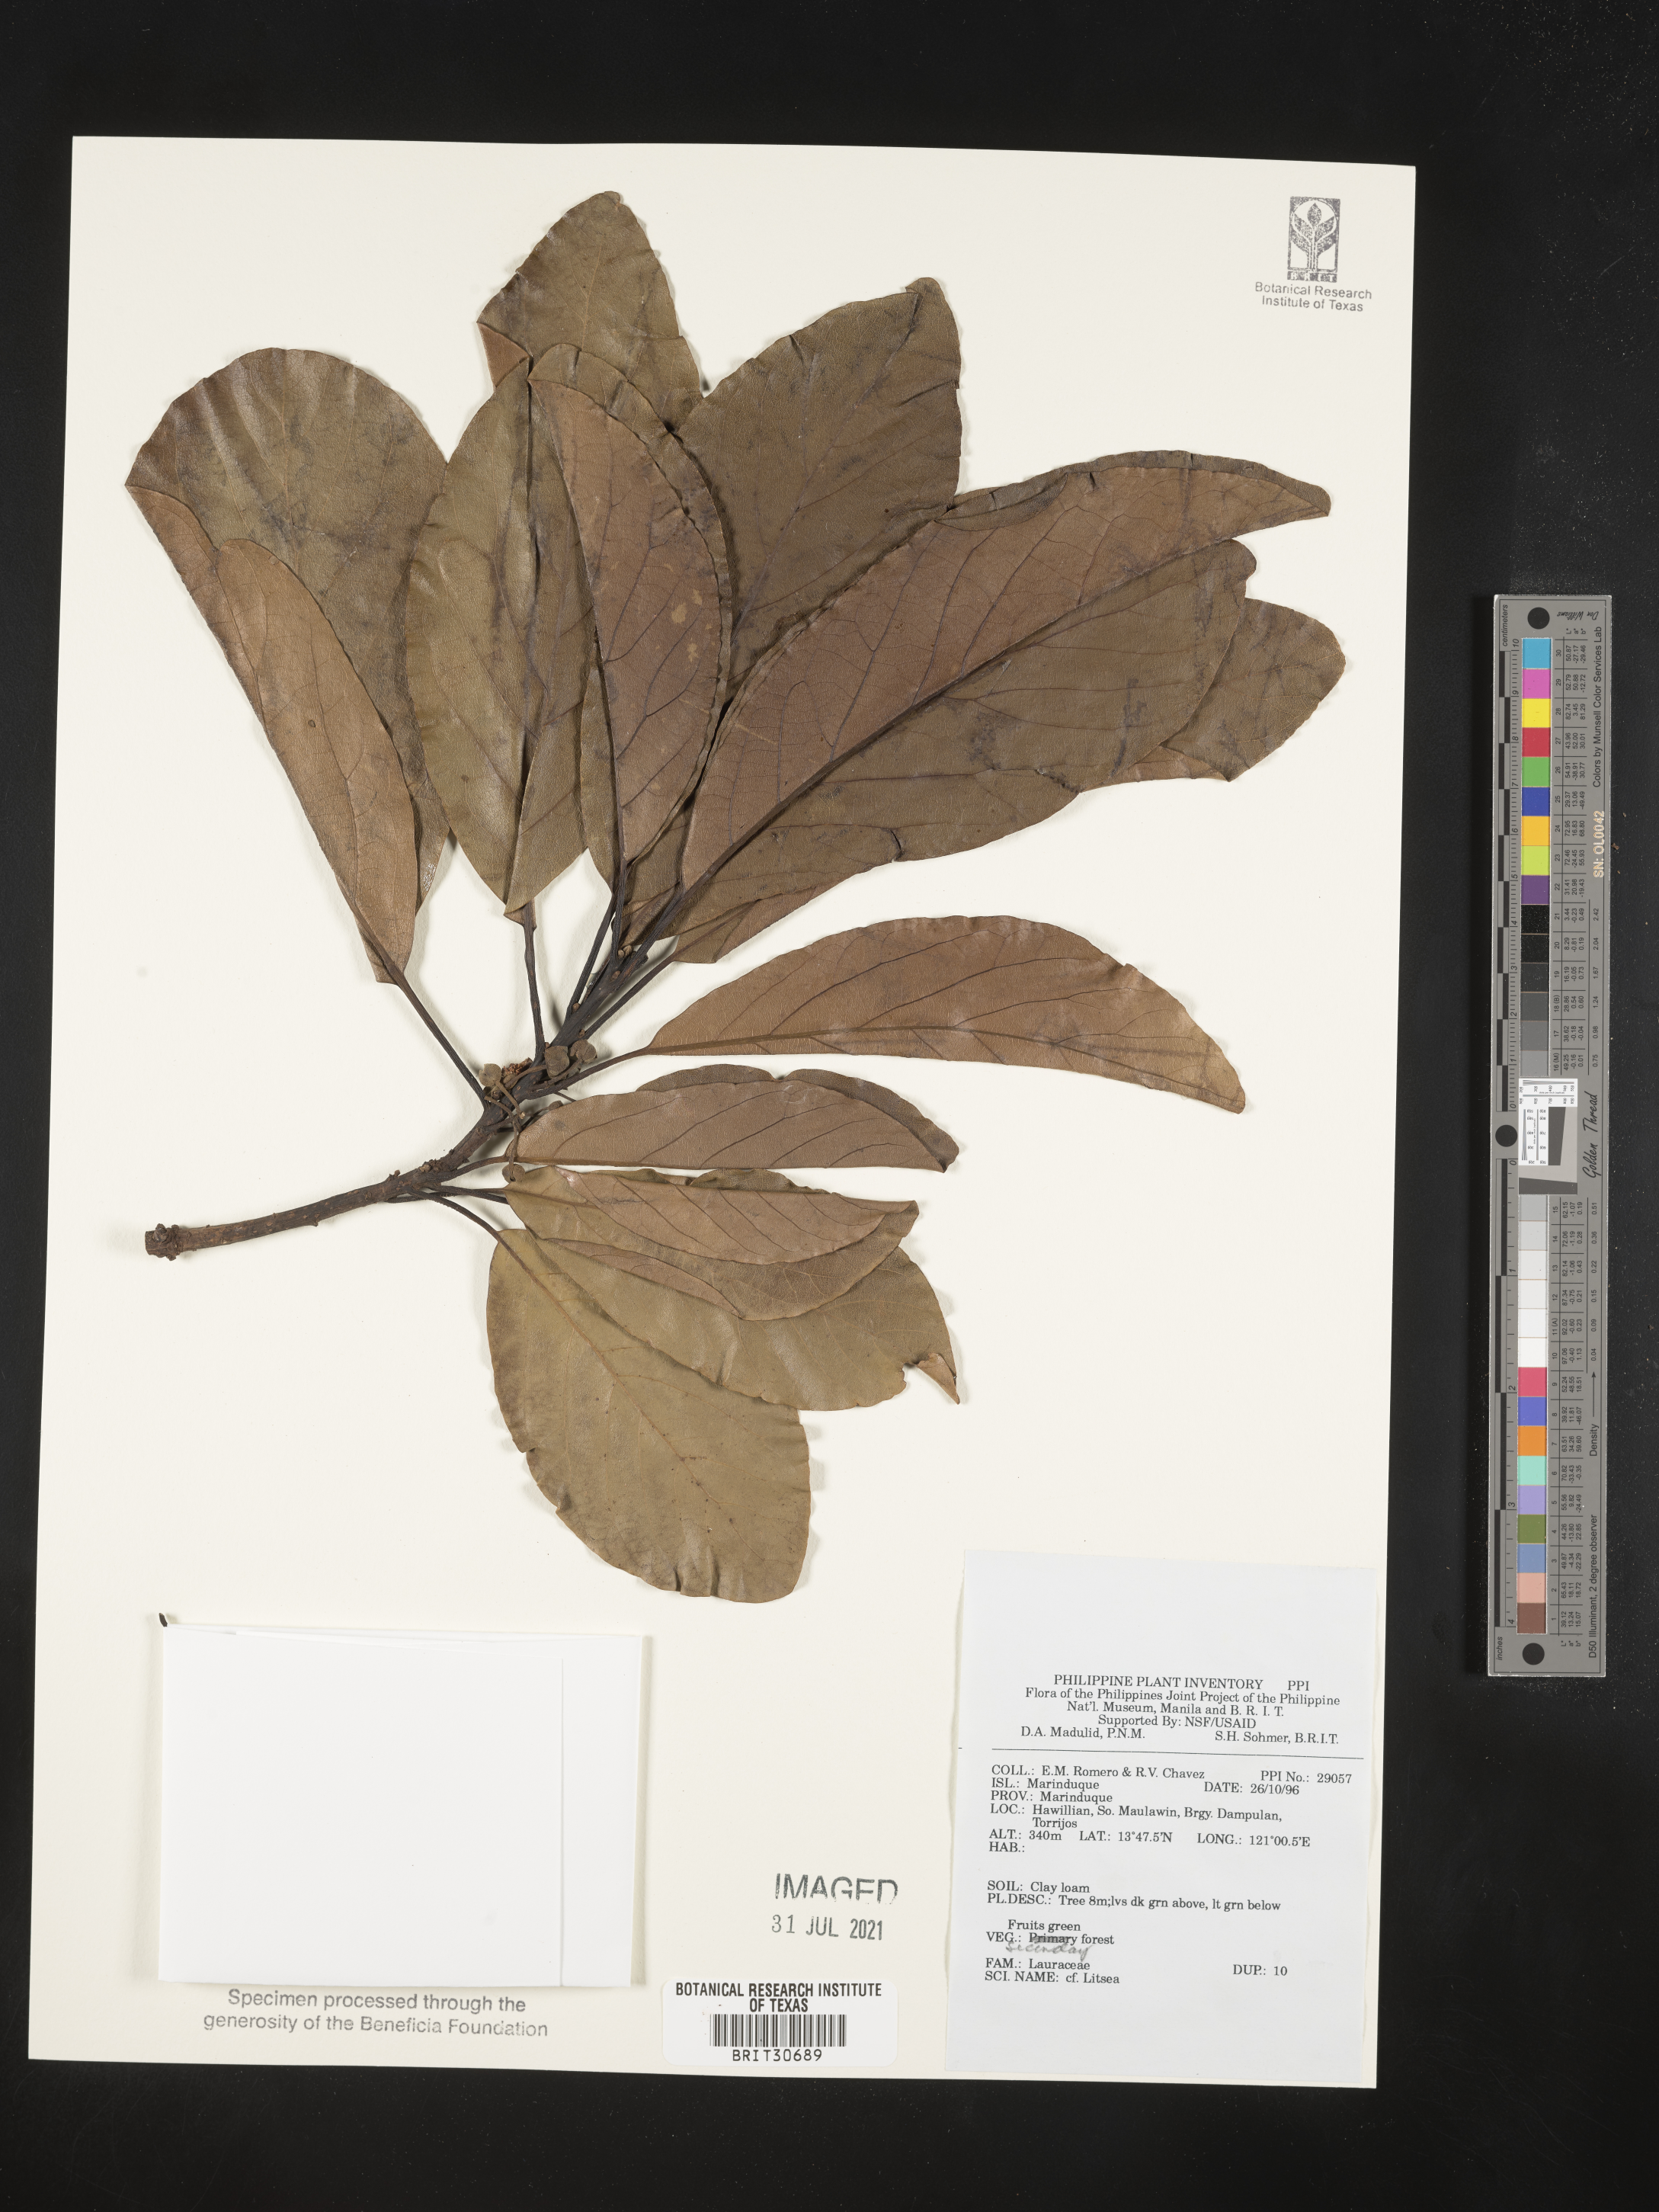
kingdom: Plantae
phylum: Tracheophyta
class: Magnoliopsida
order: Laurales
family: Lauraceae
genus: Litsea
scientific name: Litsea
